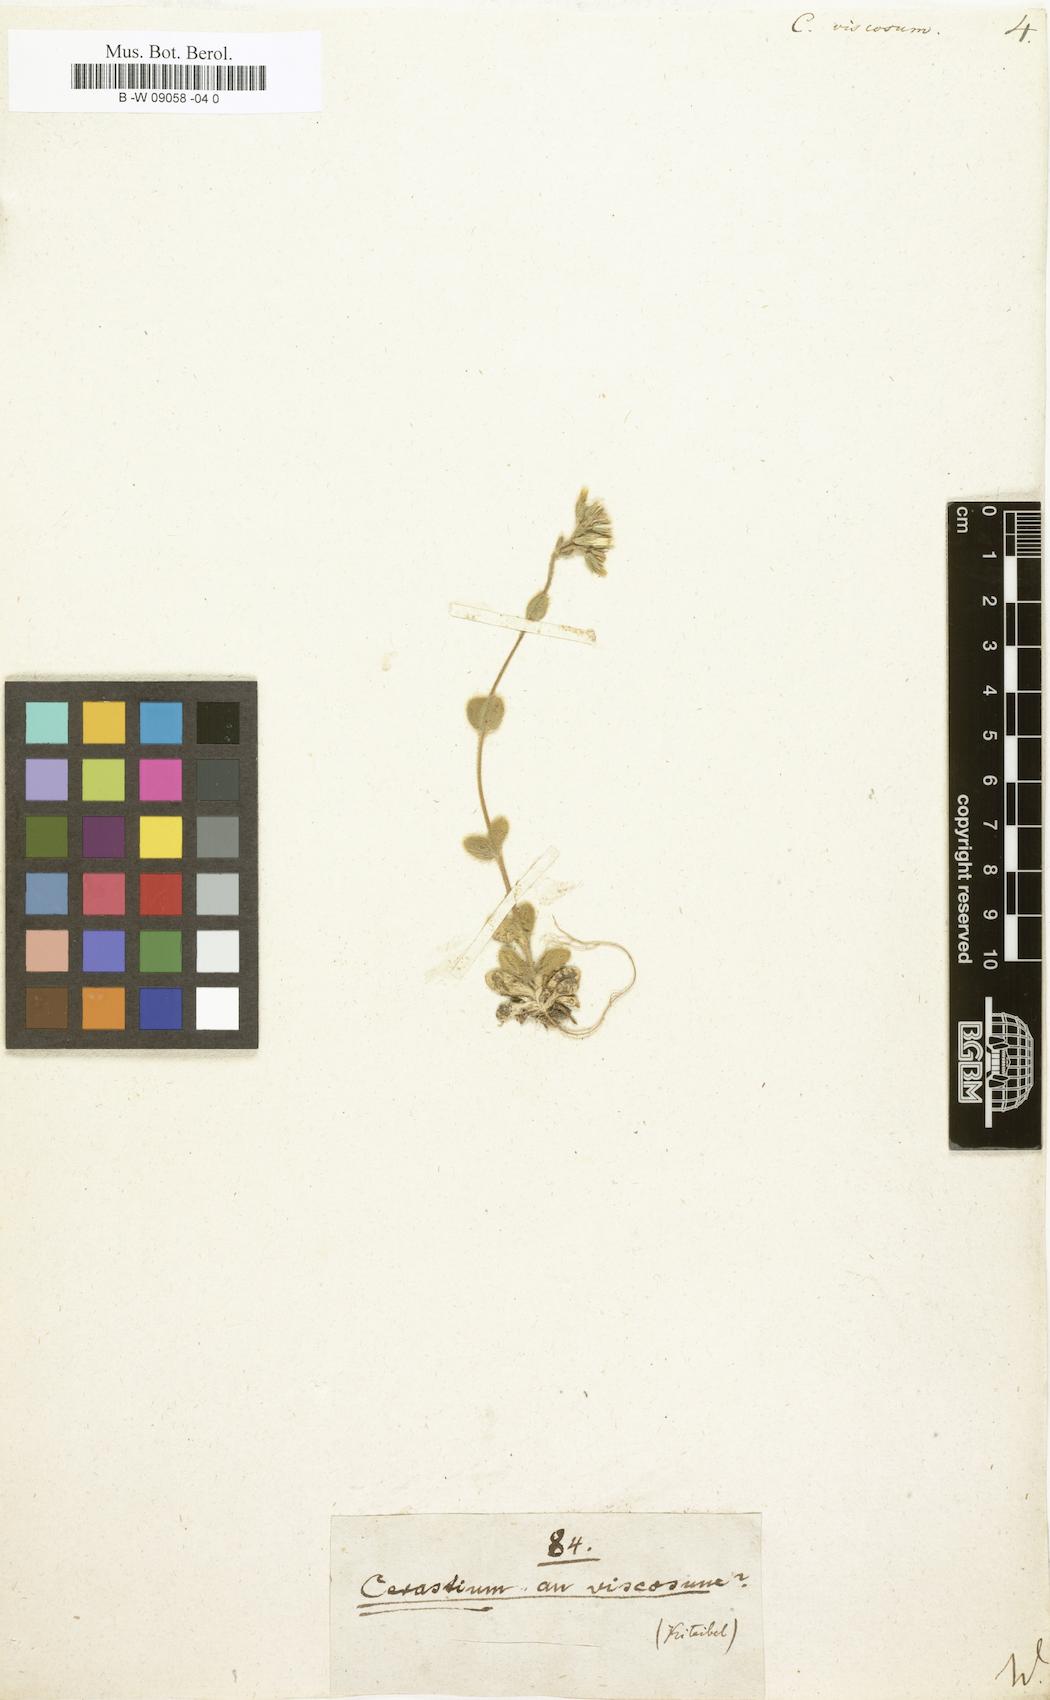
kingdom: Plantae
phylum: Tracheophyta
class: Magnoliopsida
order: Caryophyllales
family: Caryophyllaceae
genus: Cerastium
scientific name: Cerastium holosteoides
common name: Big chickweed
